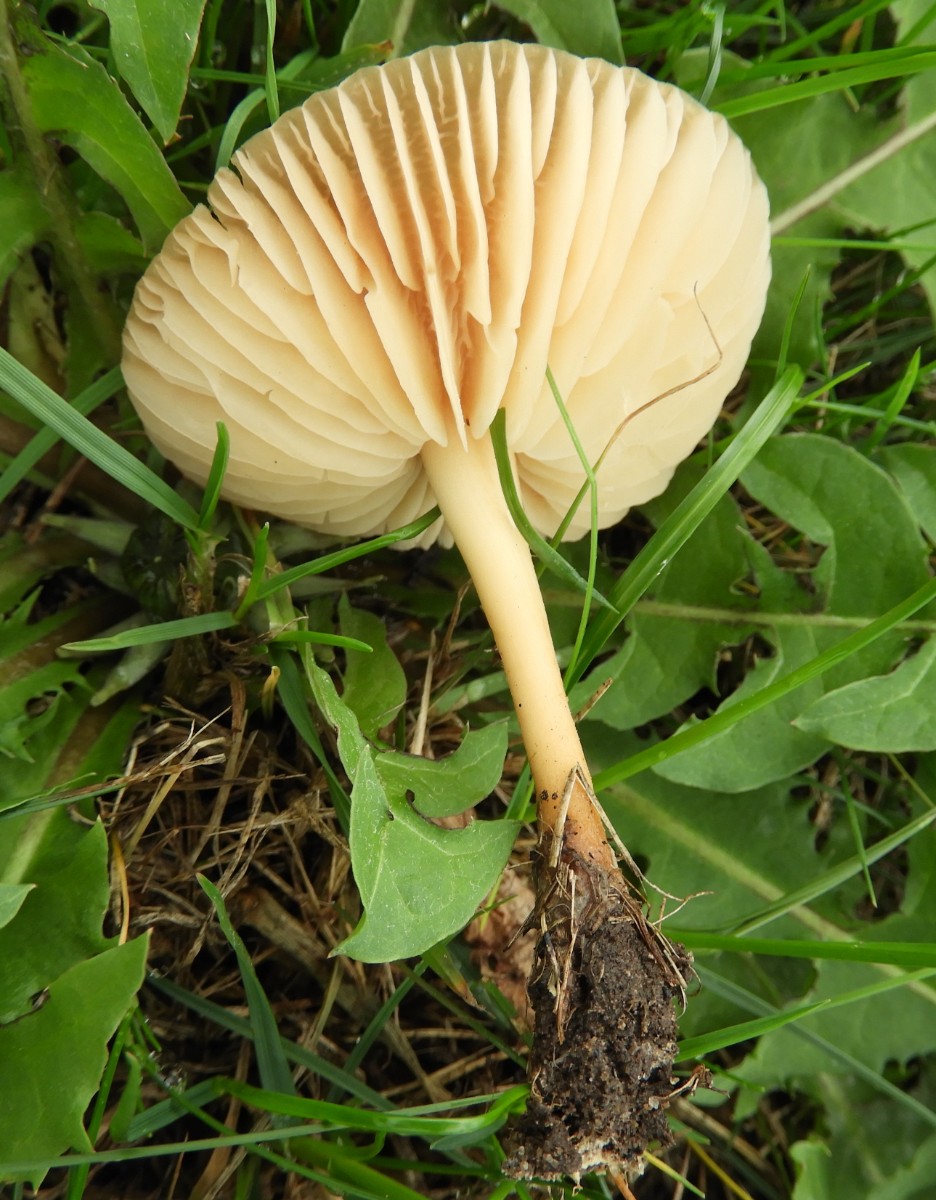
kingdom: Fungi
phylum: Basidiomycota
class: Agaricomycetes
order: Agaricales
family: Marasmiaceae
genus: Marasmius
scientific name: Marasmius oreades
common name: elledans-bruskhat
